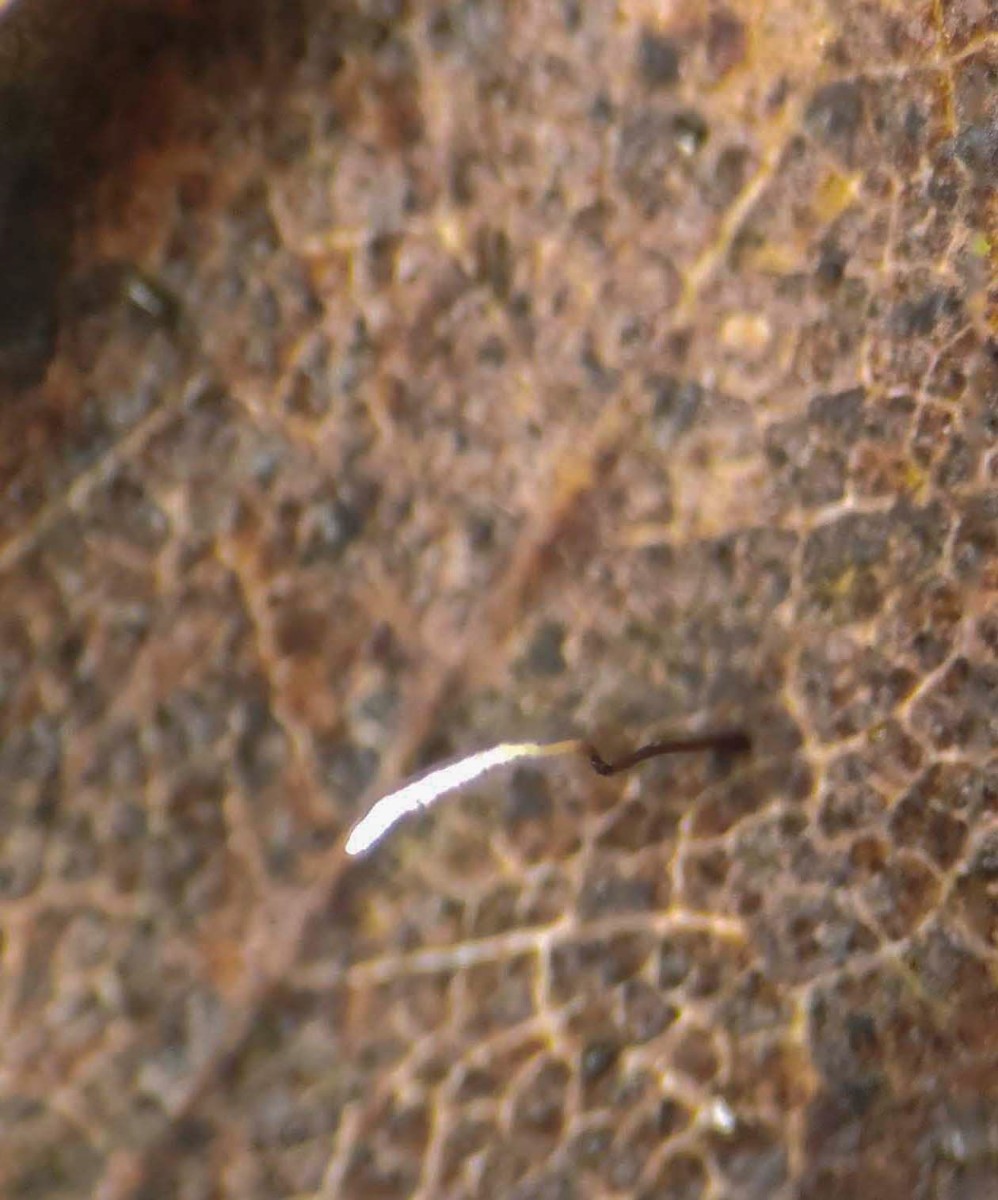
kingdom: Fungi
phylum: Basidiomycota
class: Agaricomycetes
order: Agaricales
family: Typhulaceae
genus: Typhula
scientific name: Typhula erythropus
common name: glatstokket trådkølle
